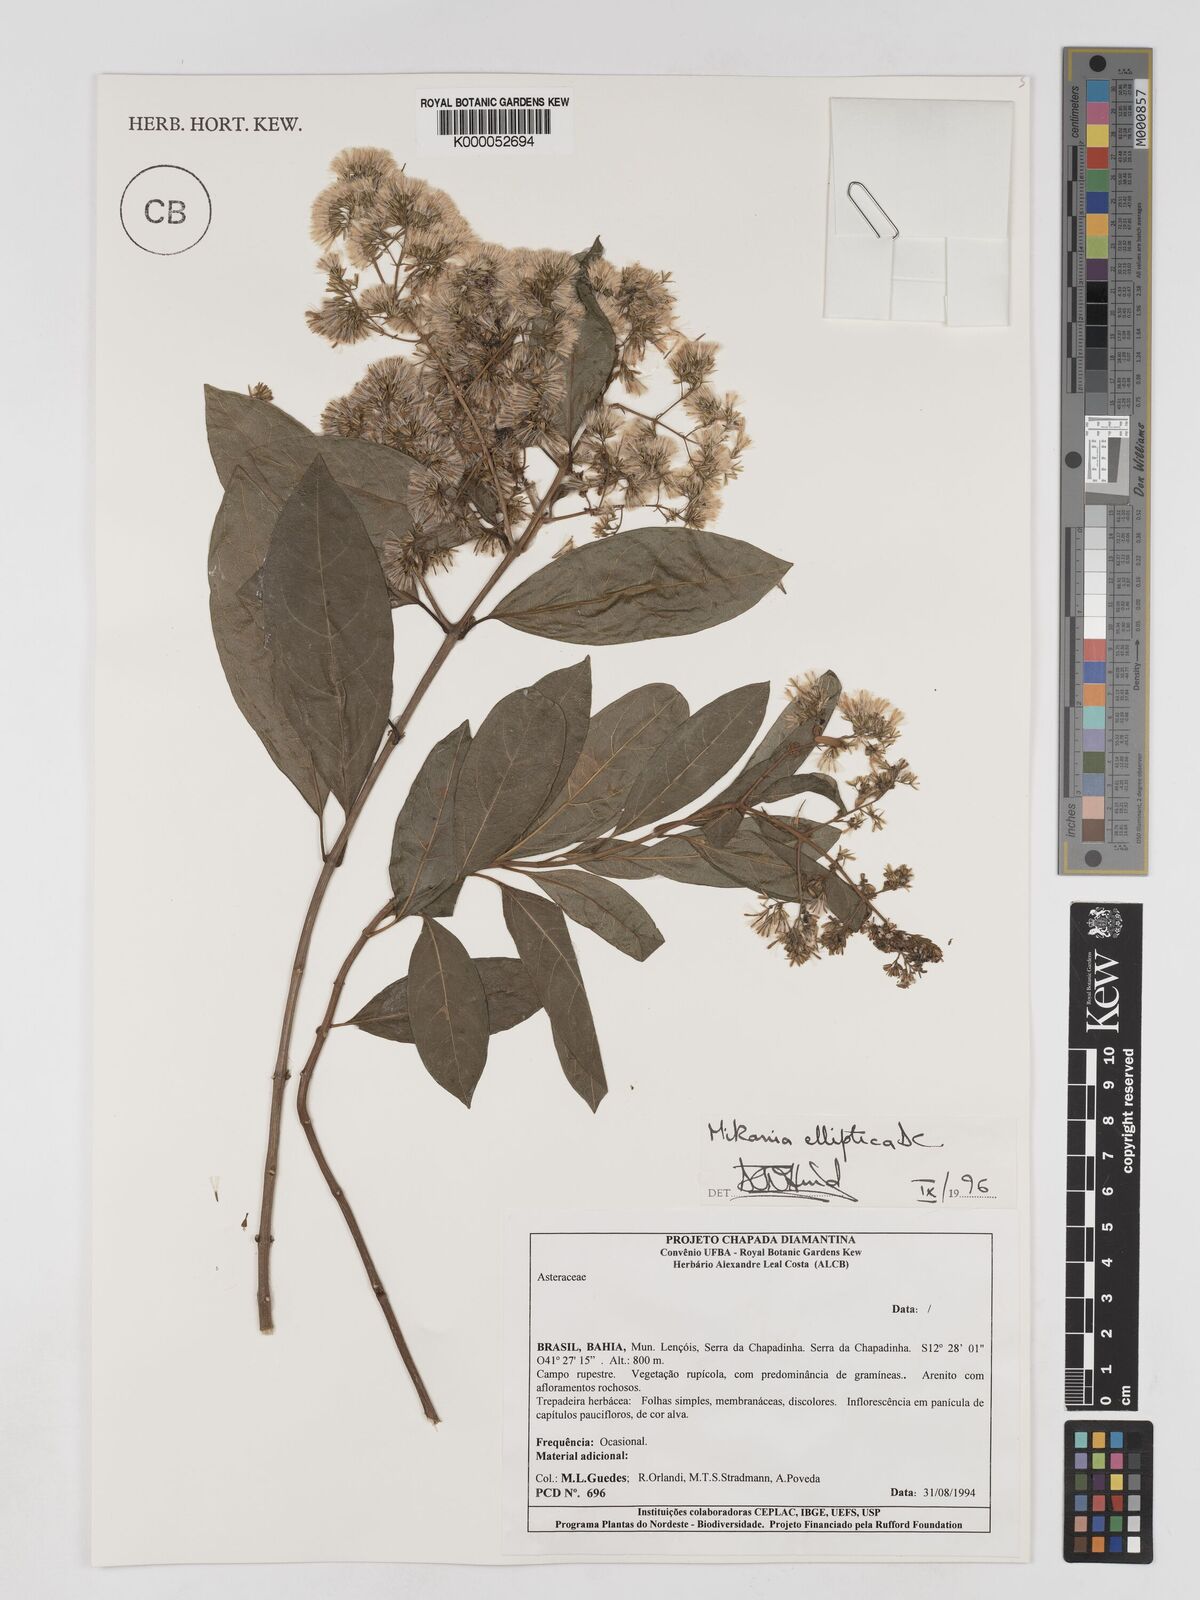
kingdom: Plantae
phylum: Tracheophyta
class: Magnoliopsida
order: Asterales
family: Asteraceae
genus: Mikania
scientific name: Mikania elliptica
